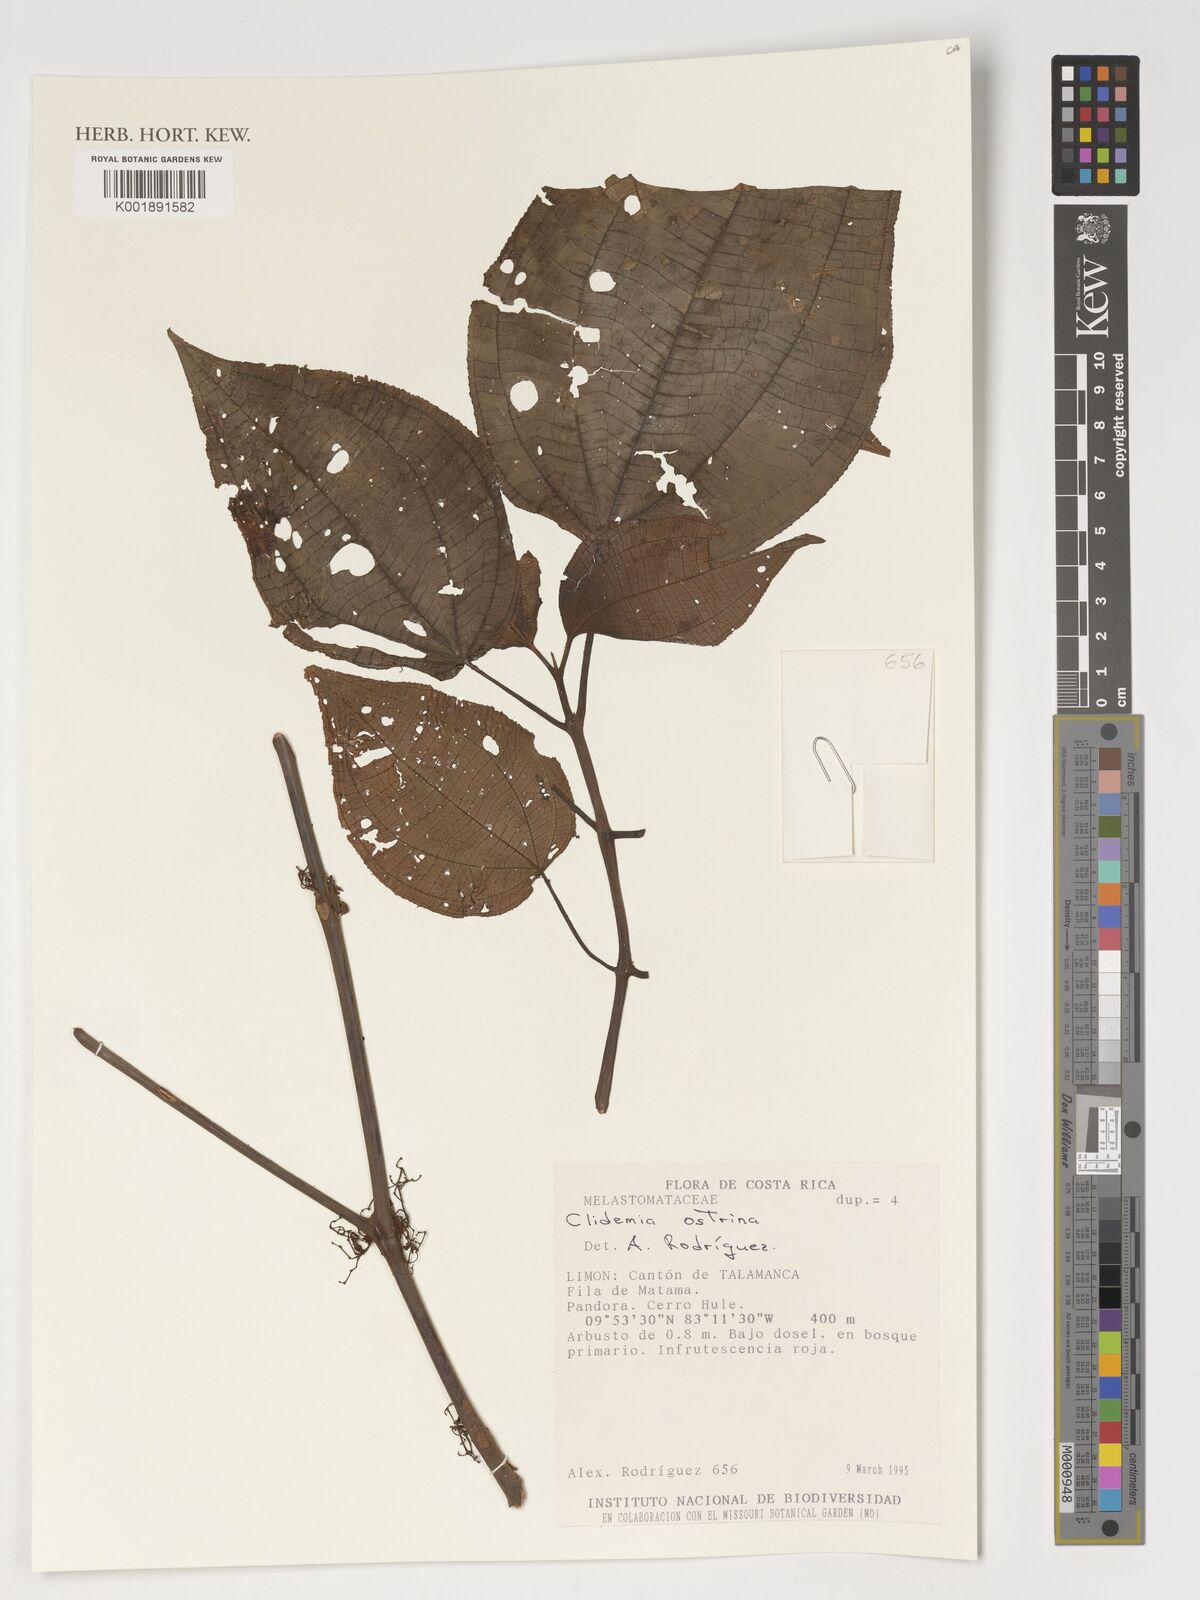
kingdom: Plantae
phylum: Tracheophyta
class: Magnoliopsida
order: Myrtales
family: Melastomataceae
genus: Miconia
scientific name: Miconia ostrina
